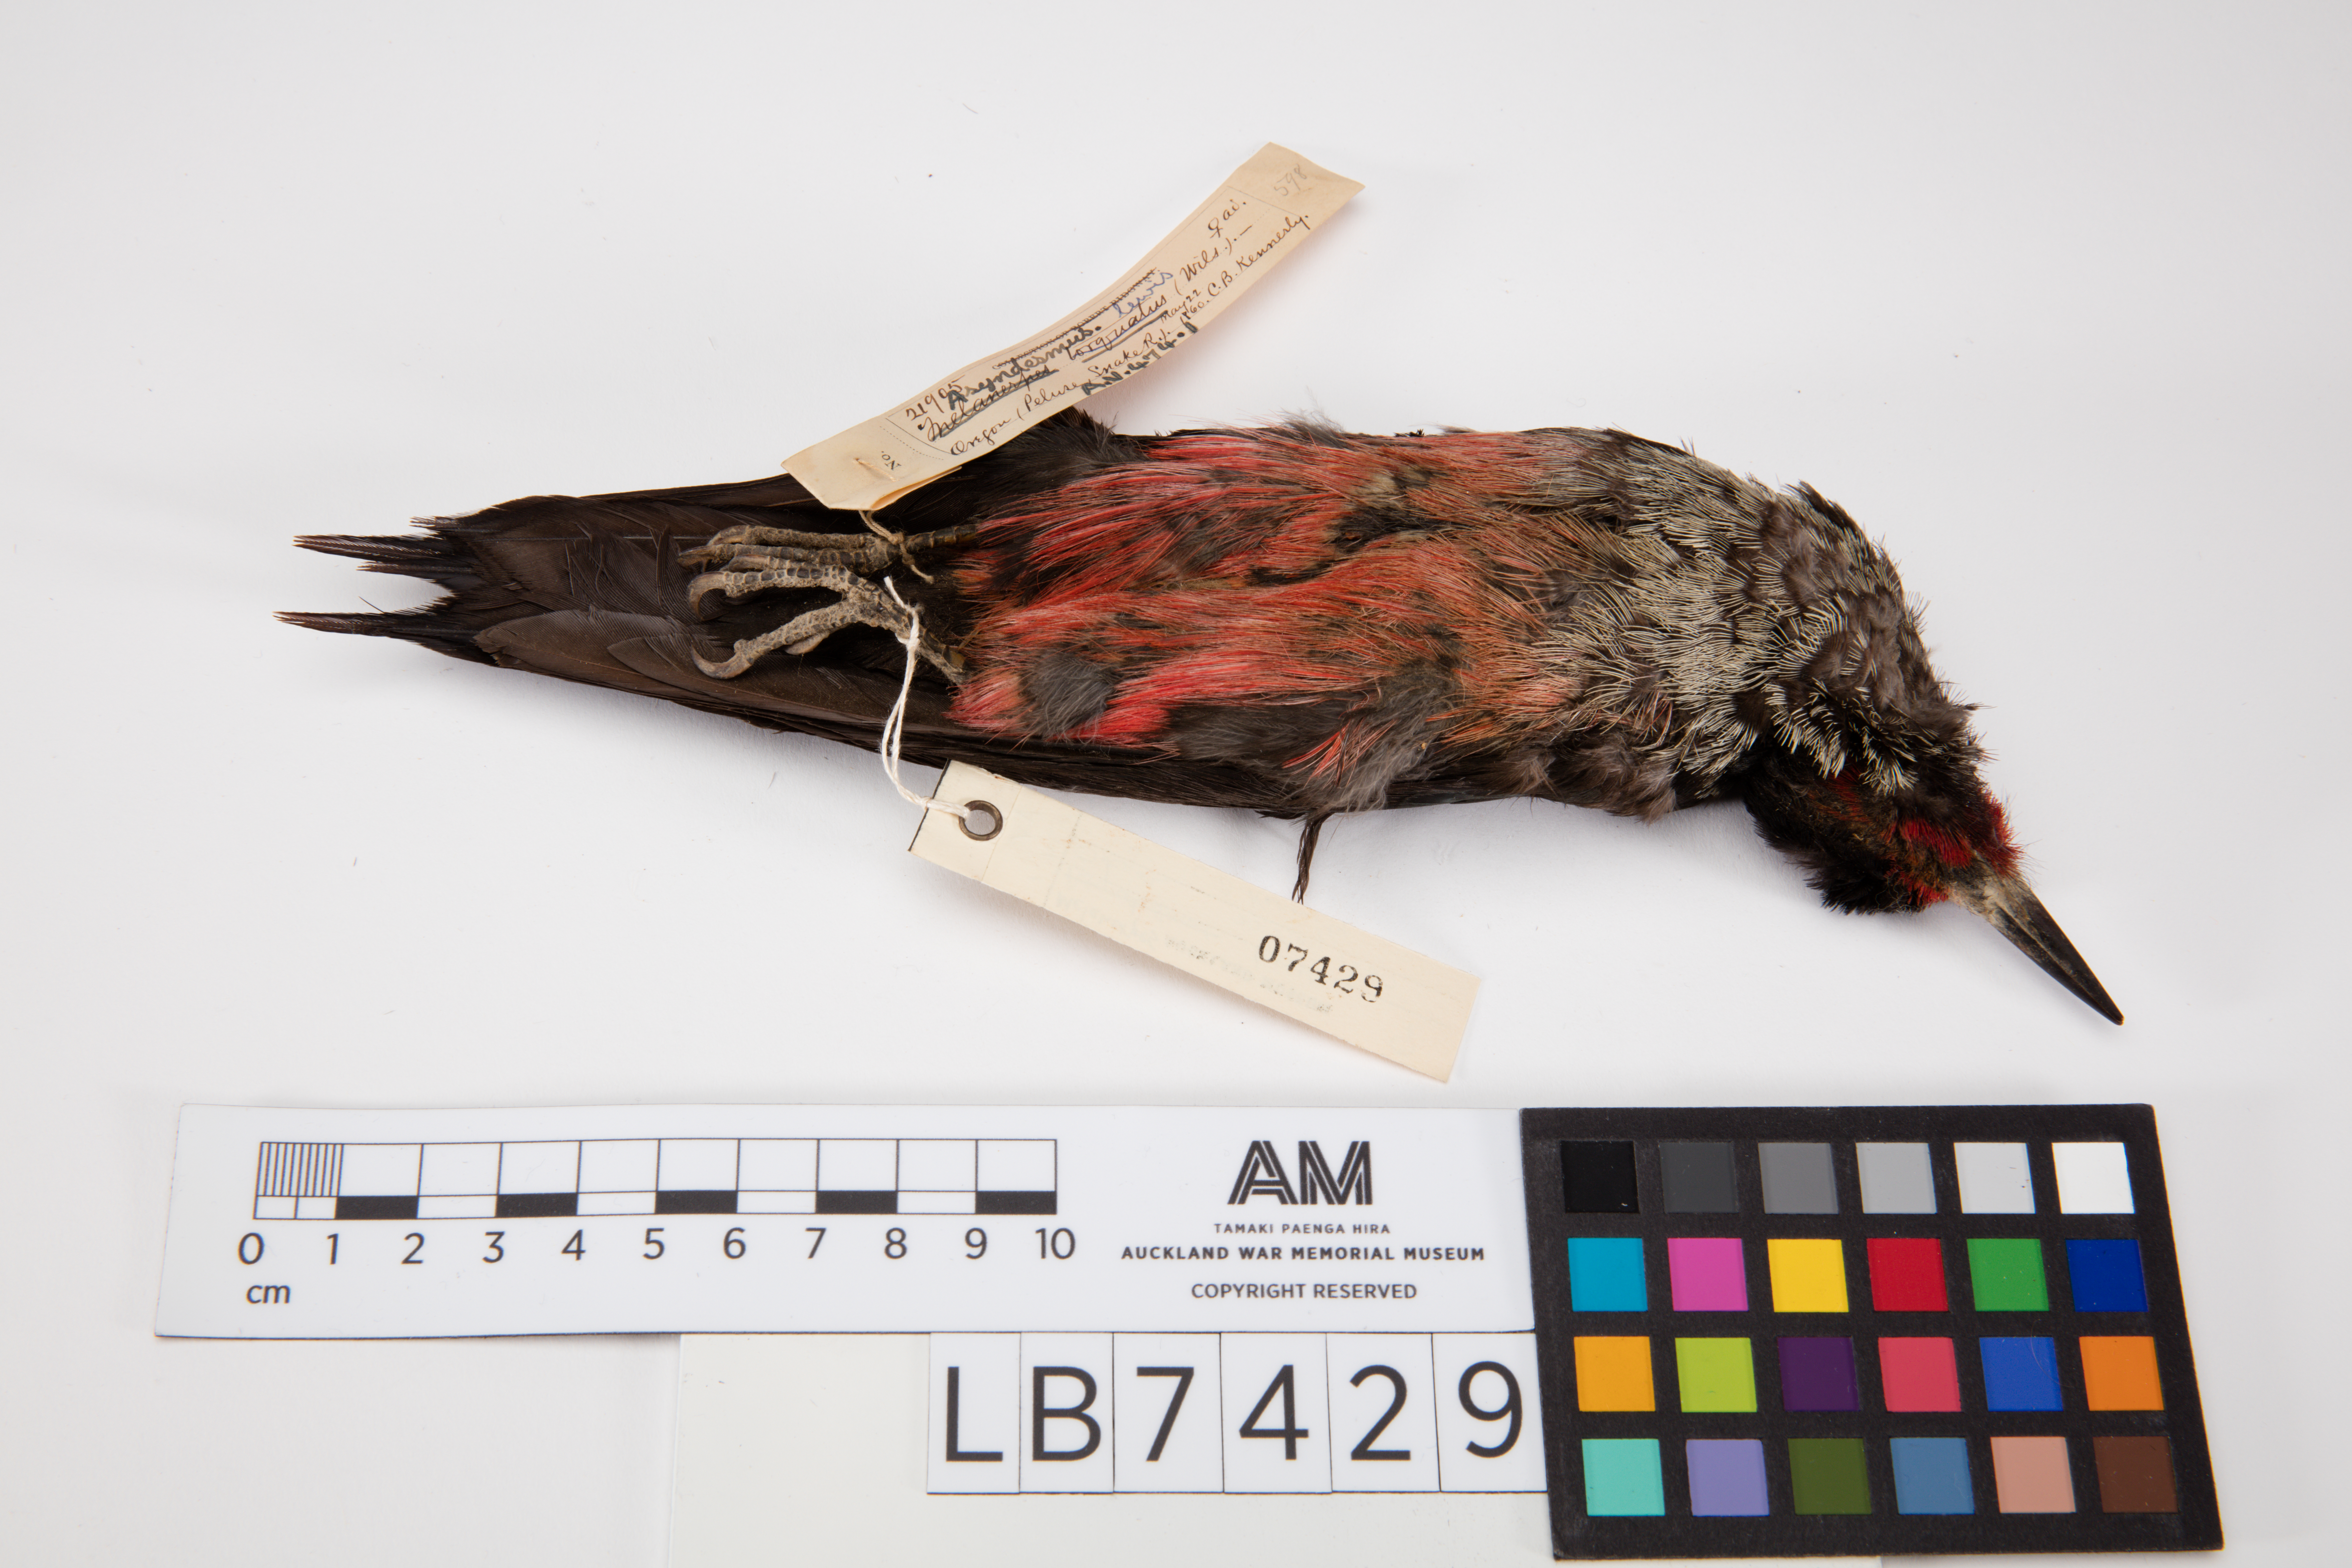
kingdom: Animalia
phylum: Chordata
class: Aves
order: Piciformes
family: Picidae
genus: Melanerpes
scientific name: Melanerpes lewis
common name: Lewis's woodpecker
